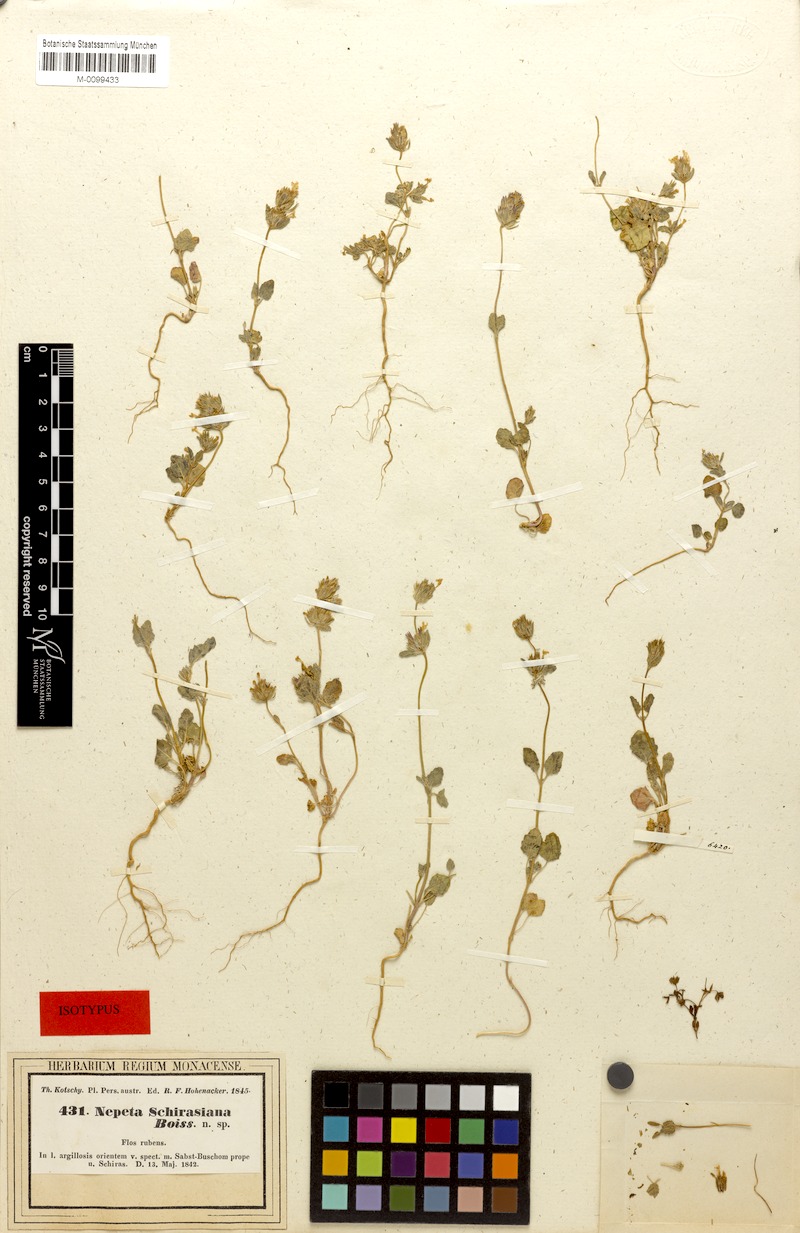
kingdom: Plantae
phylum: Tracheophyta
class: Magnoliopsida
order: Lamiales
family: Lamiaceae
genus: Nepeta
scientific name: Nepeta schiraziana
